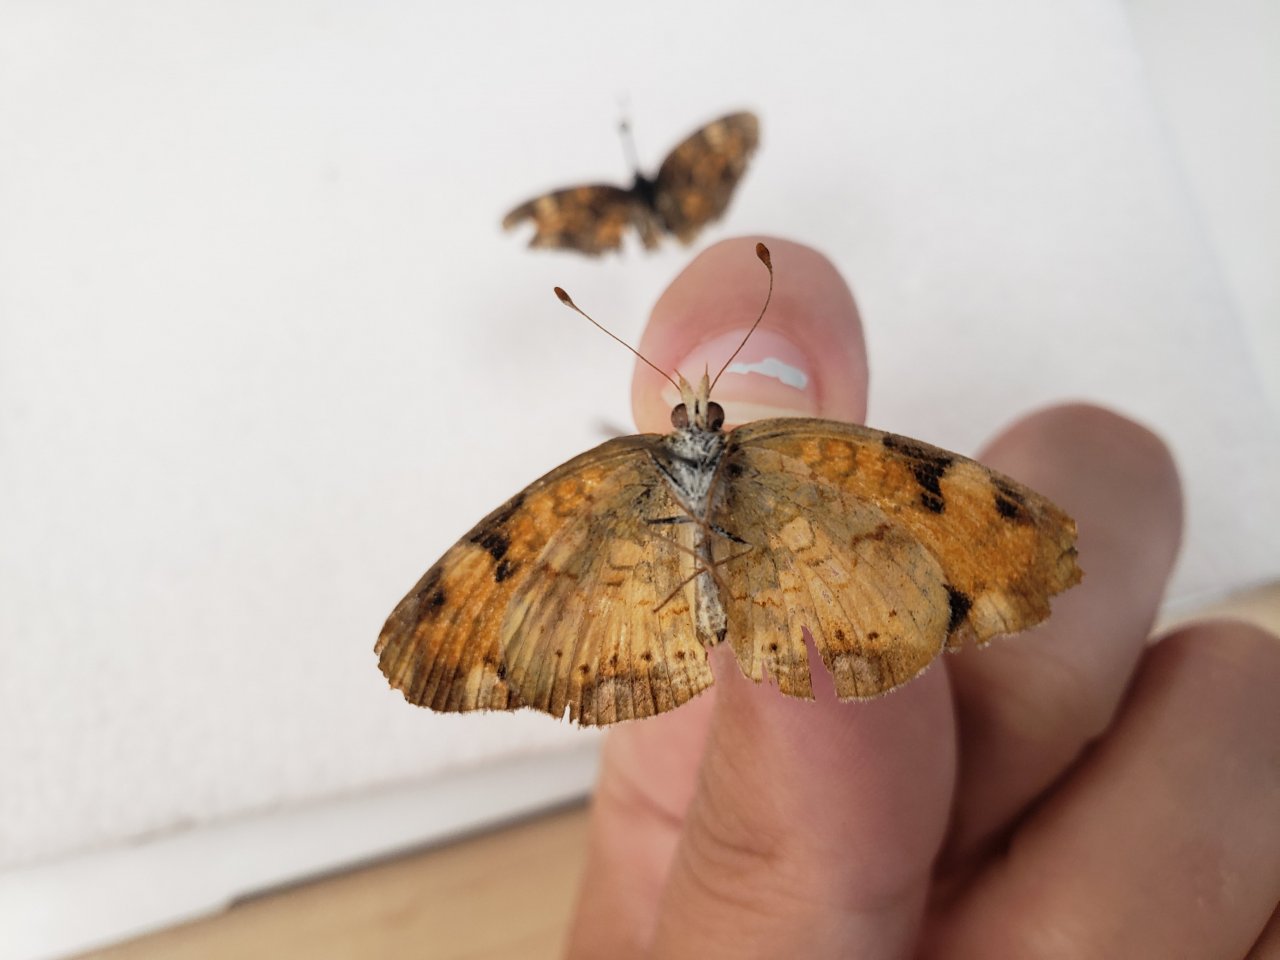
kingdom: Animalia
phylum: Arthropoda
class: Insecta
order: Lepidoptera
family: Nymphalidae
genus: Phyciodes
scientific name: Phyciodes tharos
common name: Northern Crescent
